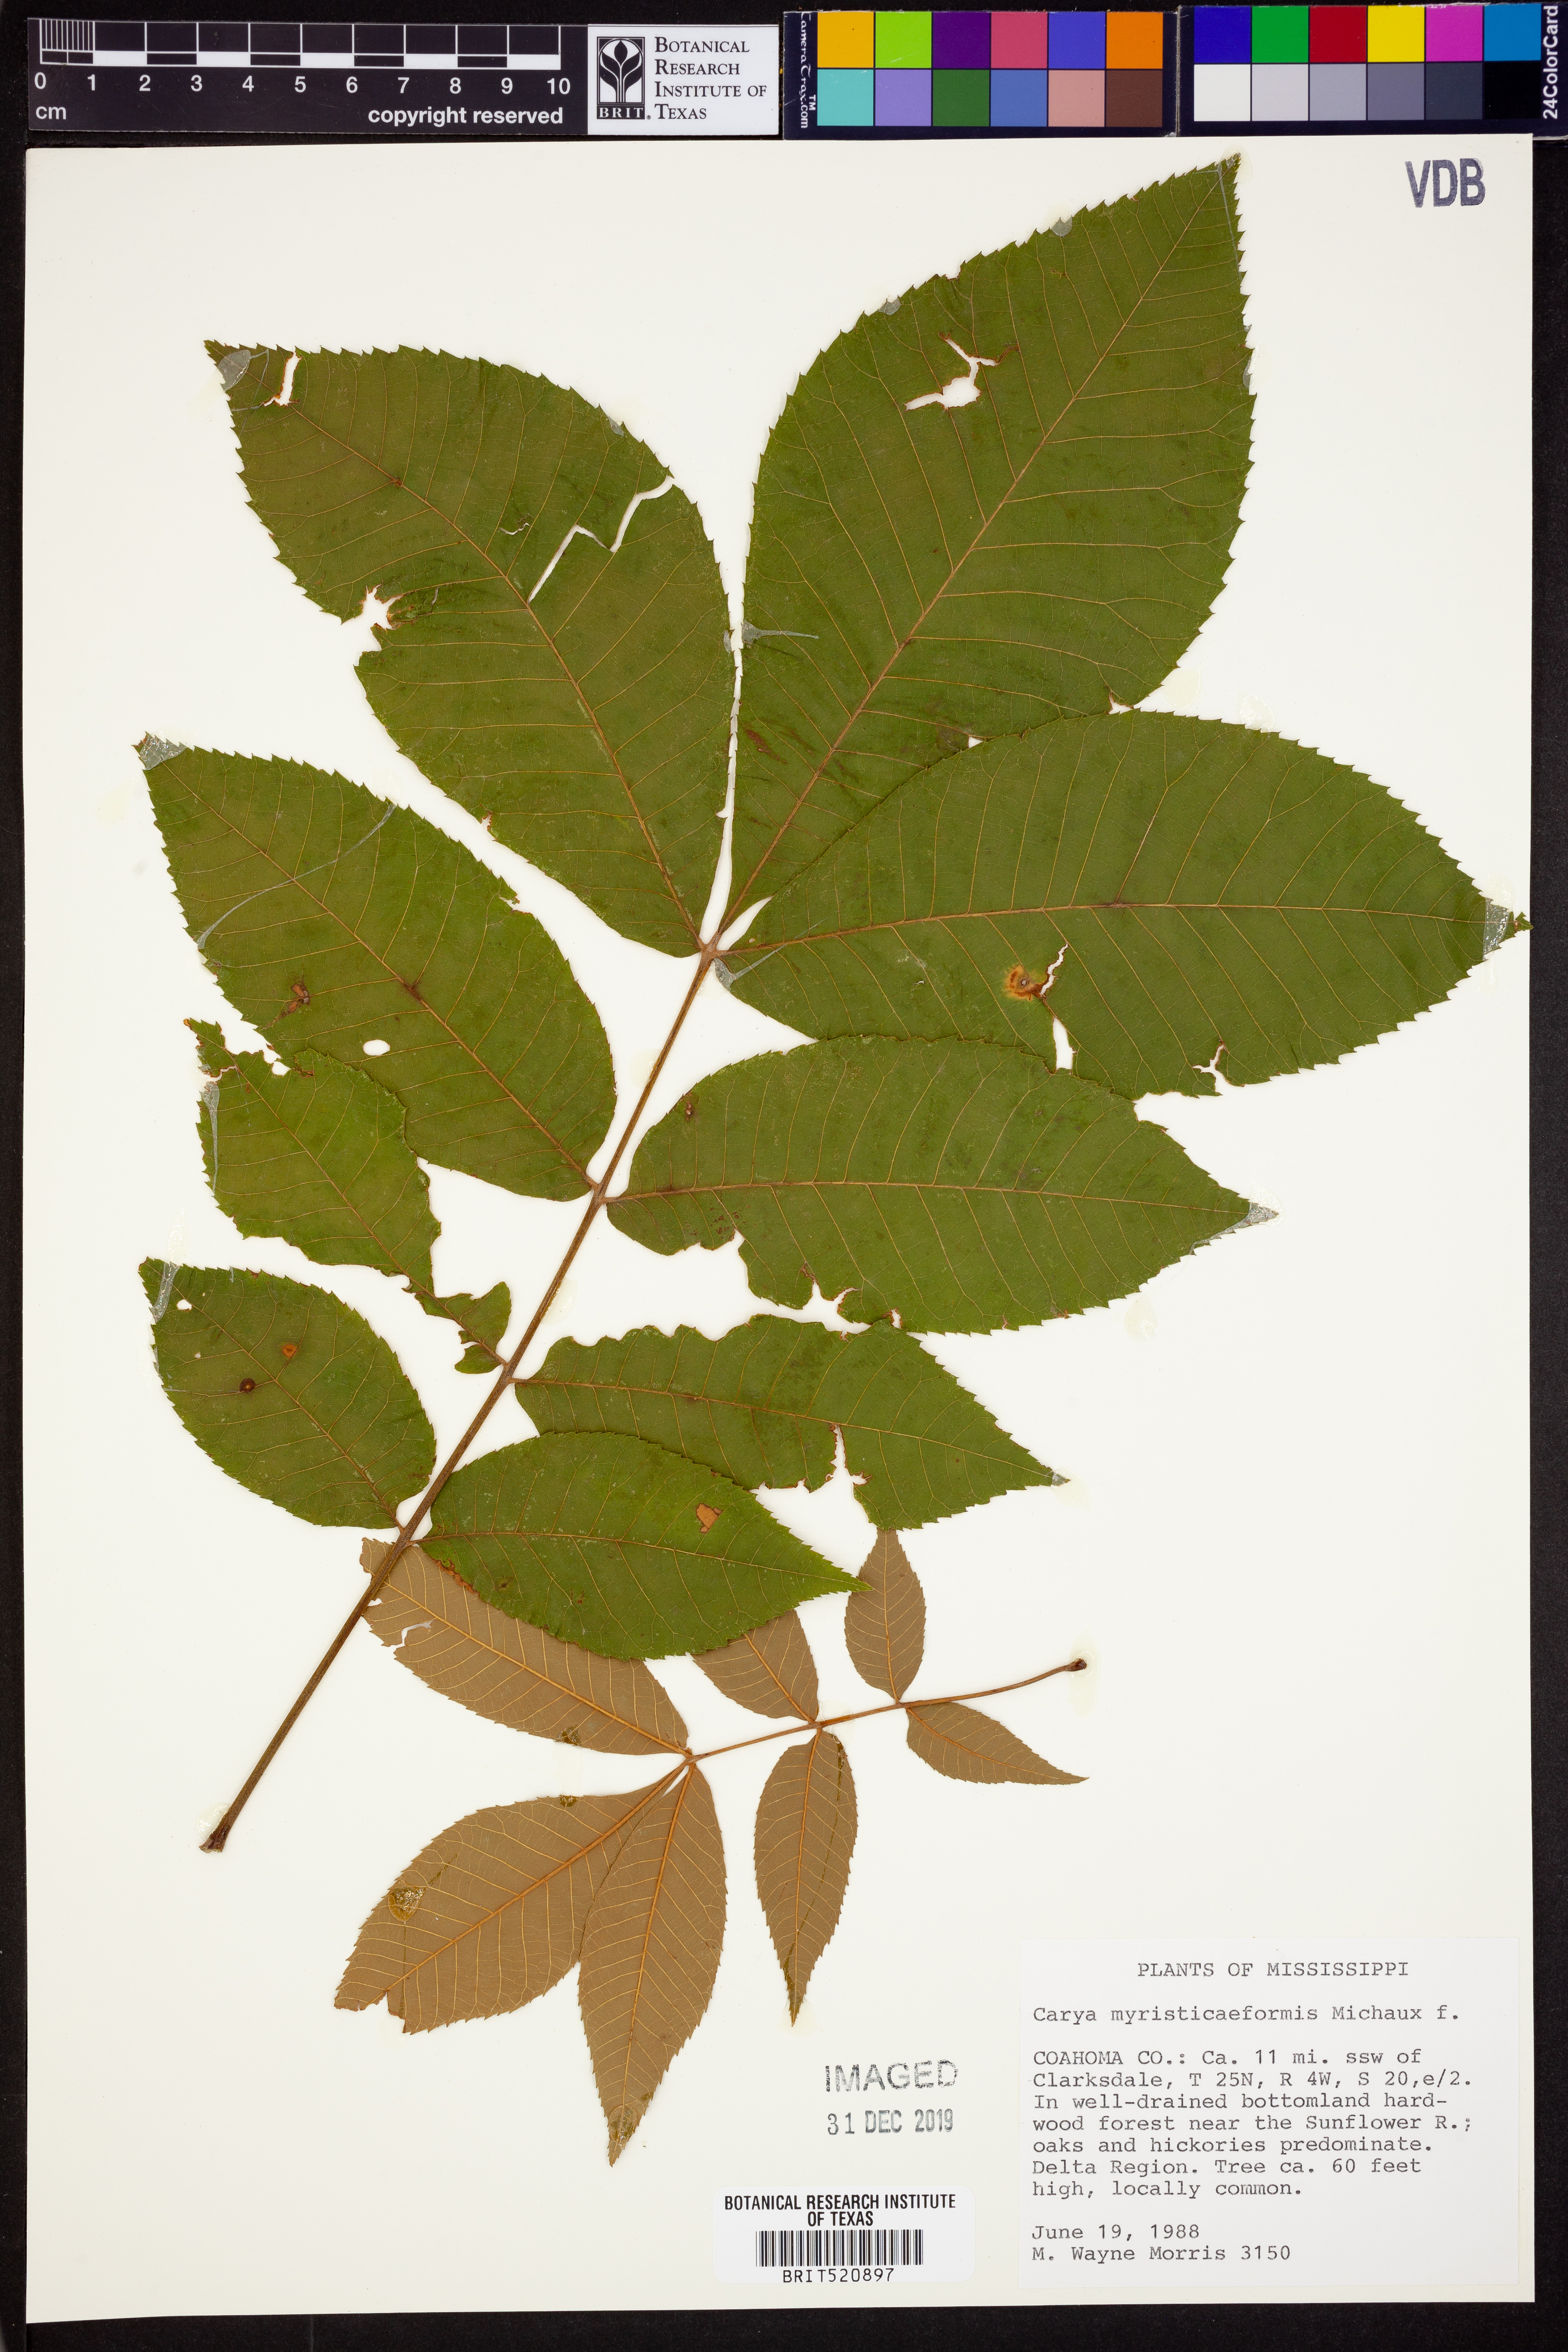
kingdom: Plantae
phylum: Tracheophyta
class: Magnoliopsida
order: Fagales
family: Juglandaceae
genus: Carya
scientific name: Carya myristiciformis
